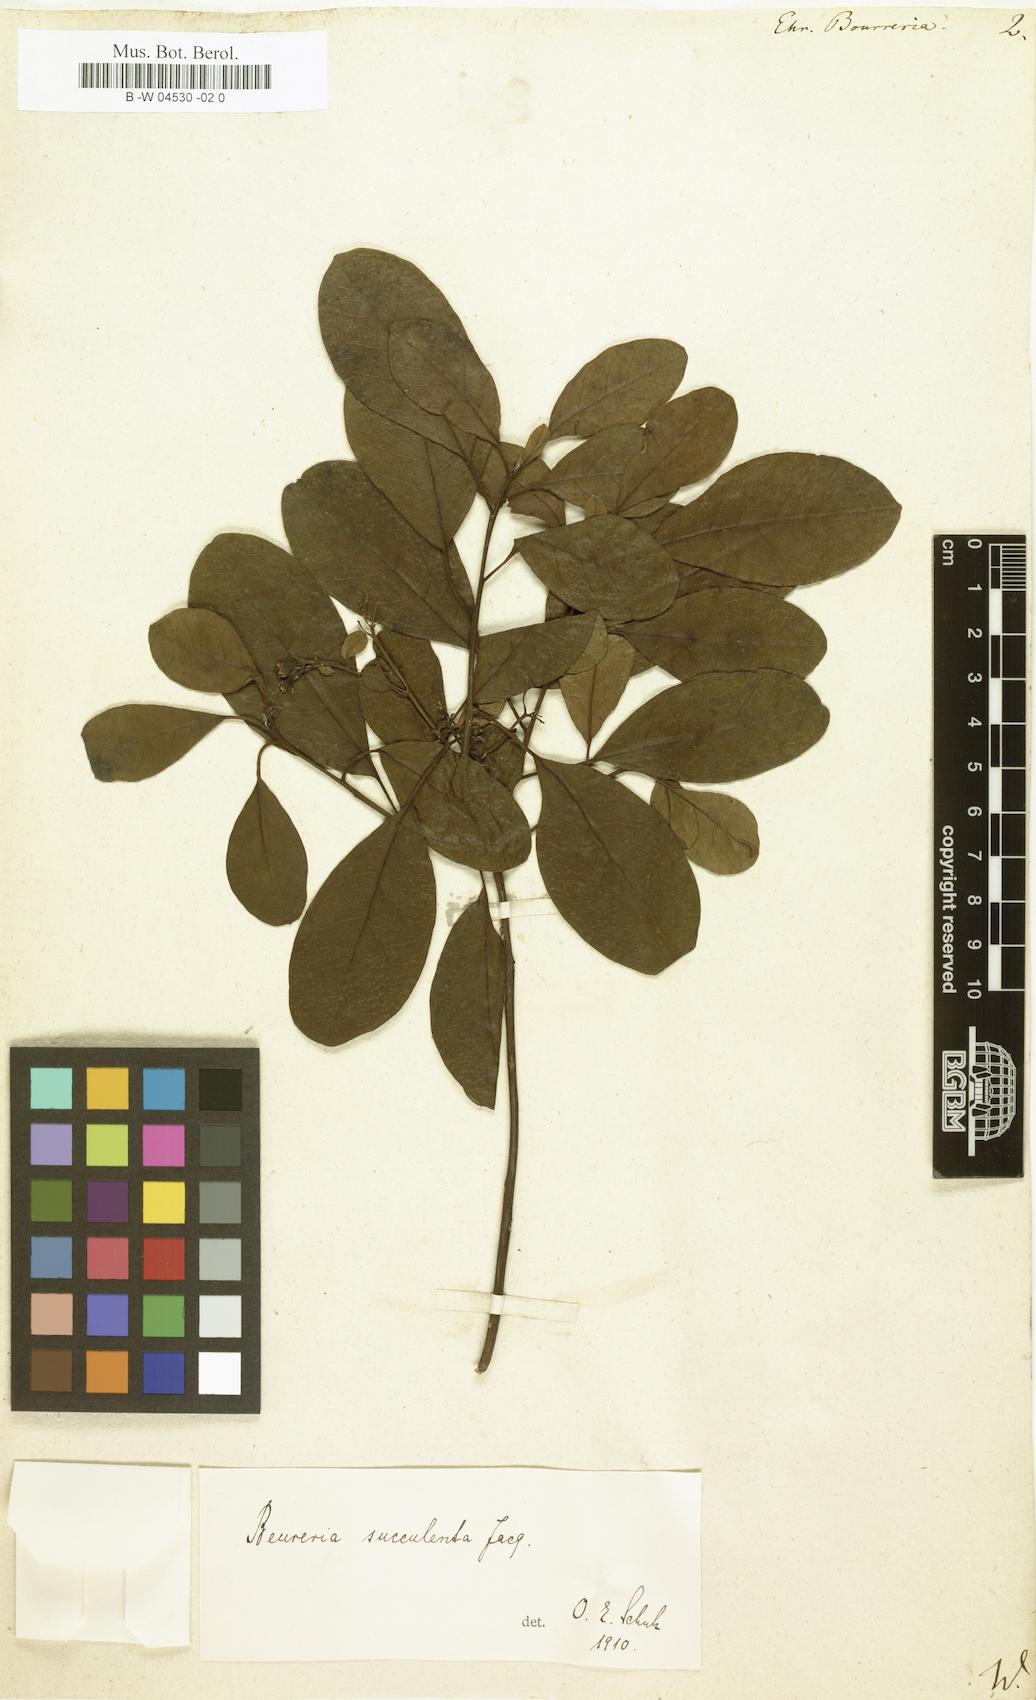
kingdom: Plantae
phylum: Tracheophyta
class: Magnoliopsida
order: Boraginales
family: Ehretiaceae
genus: Bourreria
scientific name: Bourreria succulenta
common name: Cherry
